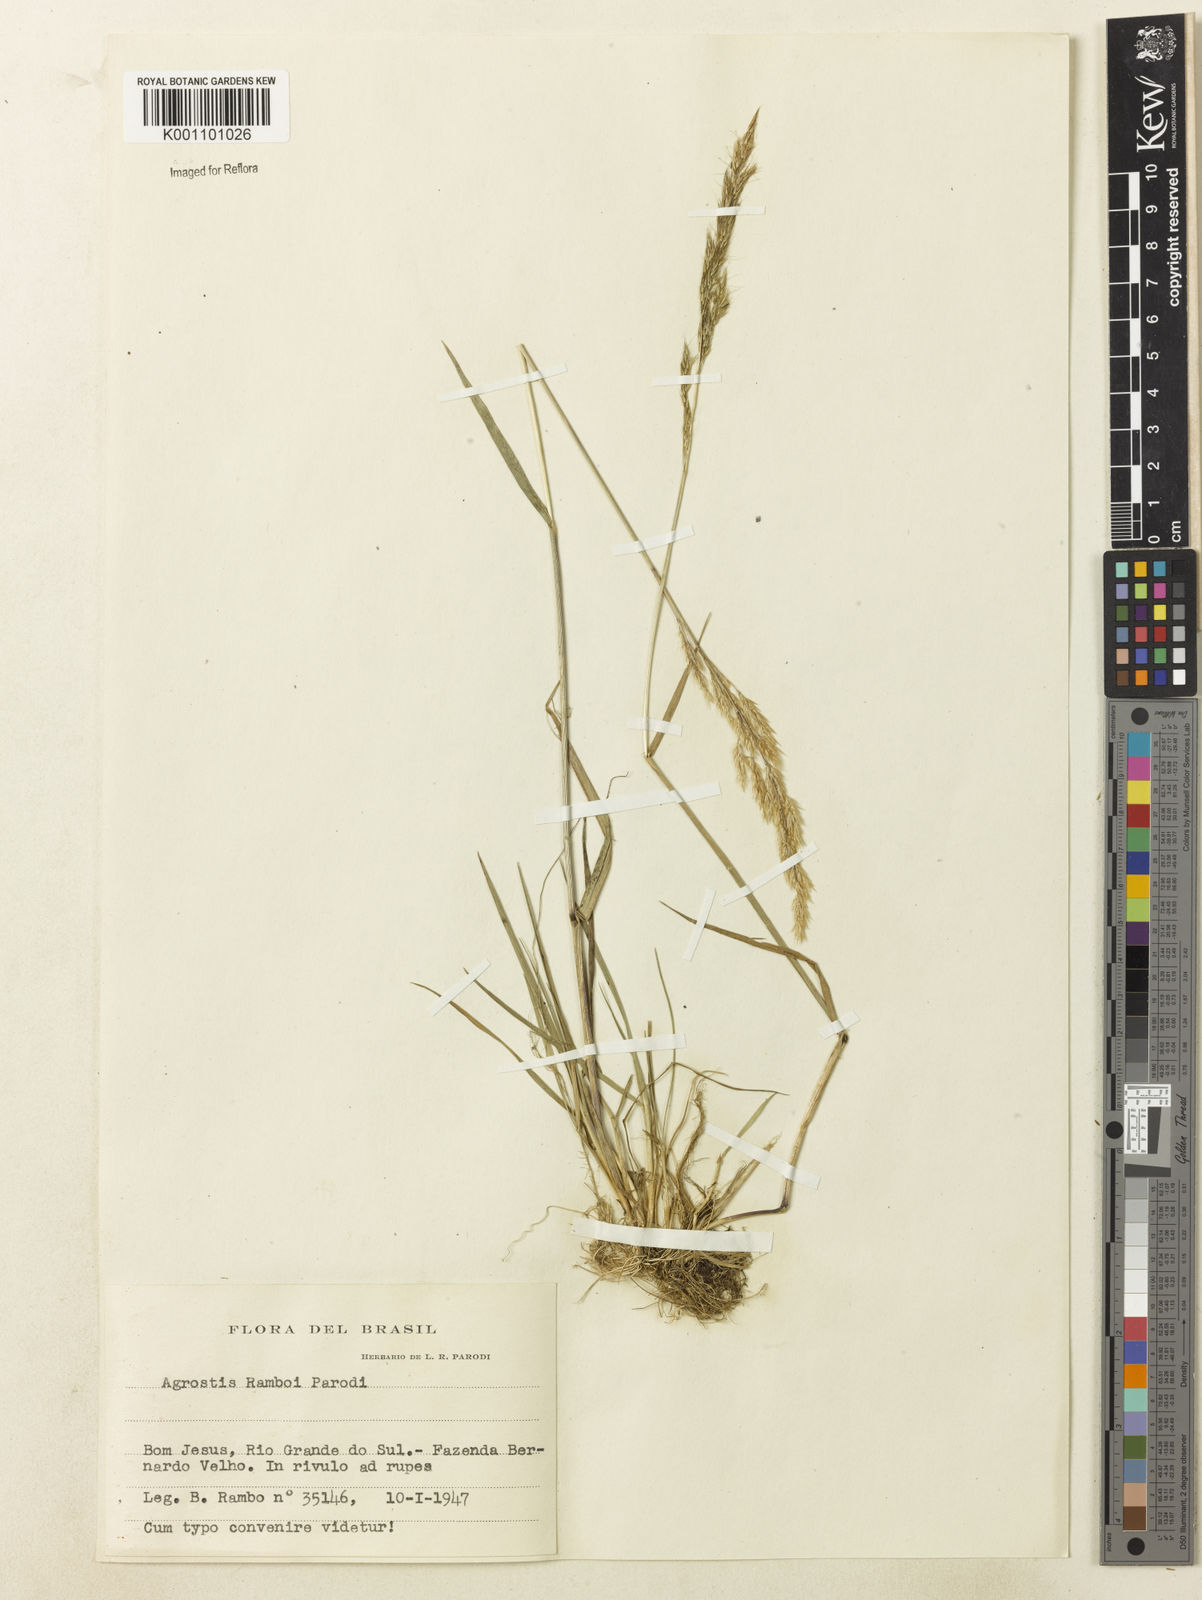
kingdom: Plantae
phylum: Tracheophyta
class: Liliopsida
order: Poales
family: Poaceae
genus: Agrostis
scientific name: Agrostis hygrometrica
